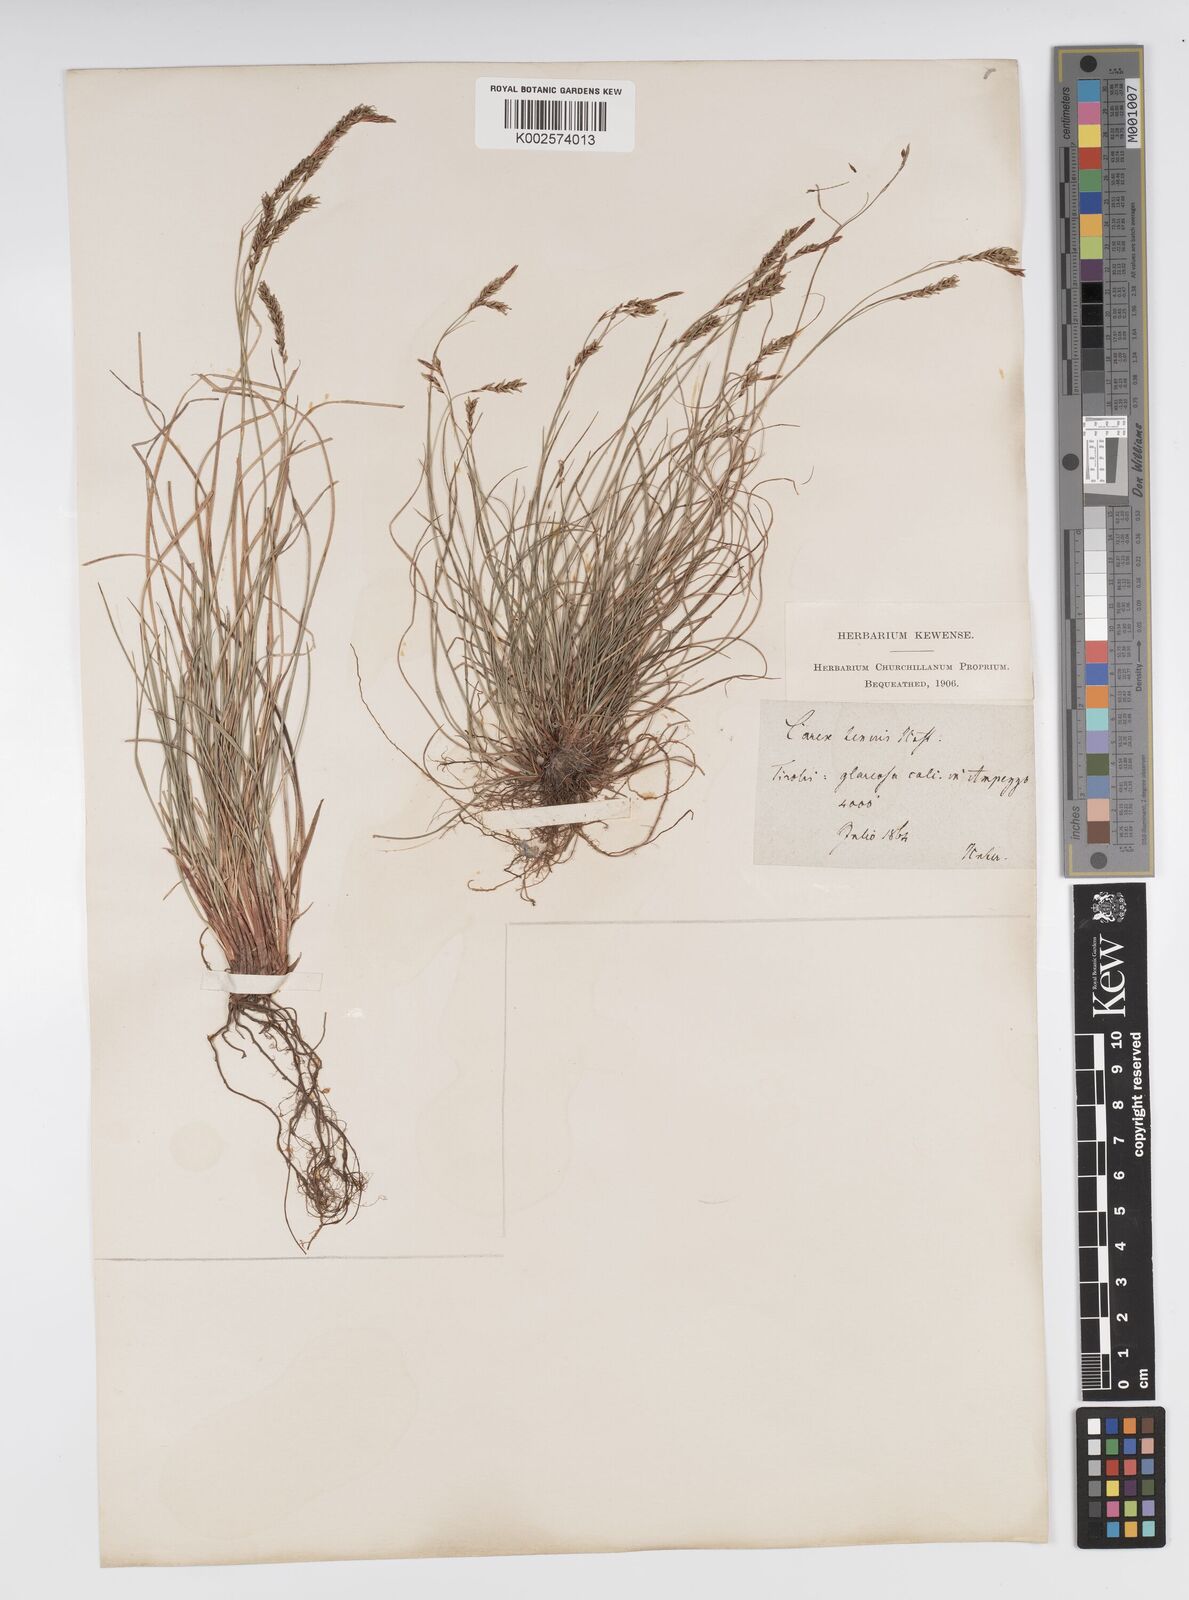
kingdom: Plantae
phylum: Tracheophyta
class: Liliopsida
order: Poales
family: Cyperaceae
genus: Carex
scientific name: Carex brachystachys
